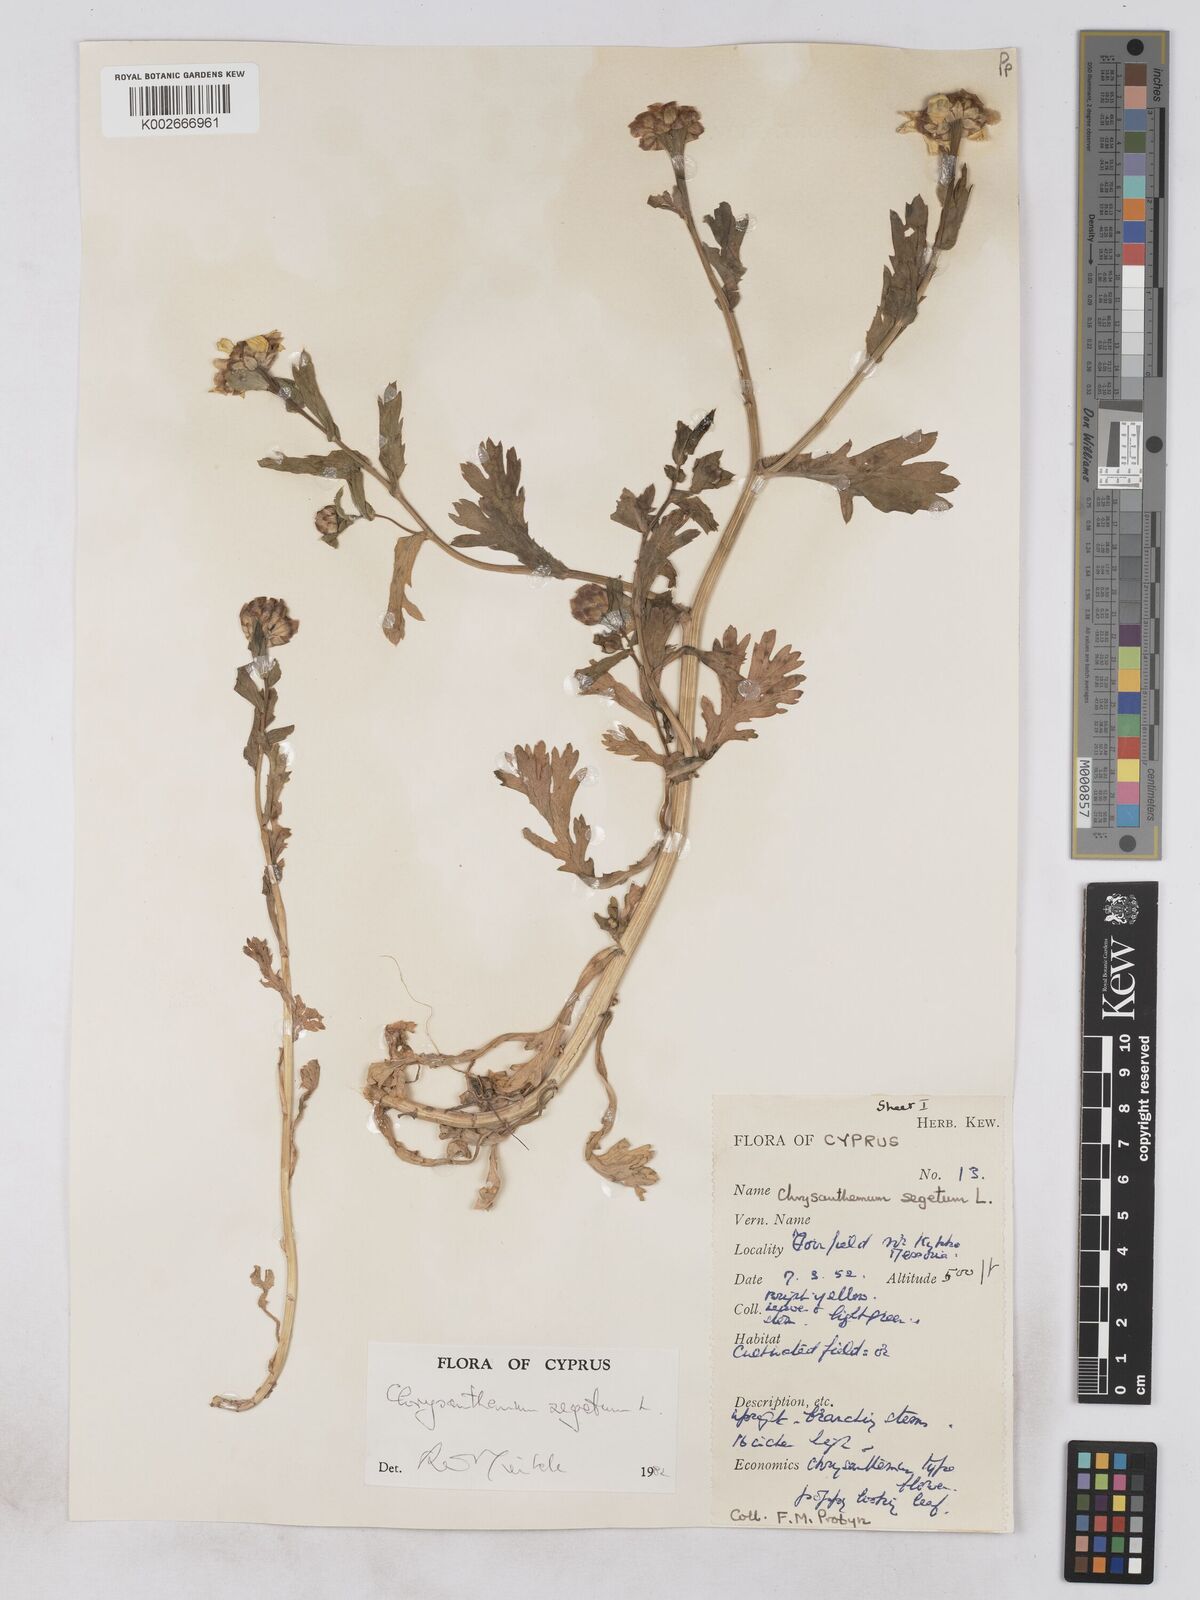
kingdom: Plantae
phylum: Tracheophyta
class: Magnoliopsida
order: Asterales
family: Asteraceae
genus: Glebionis
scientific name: Glebionis segetum
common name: Corndaisy
